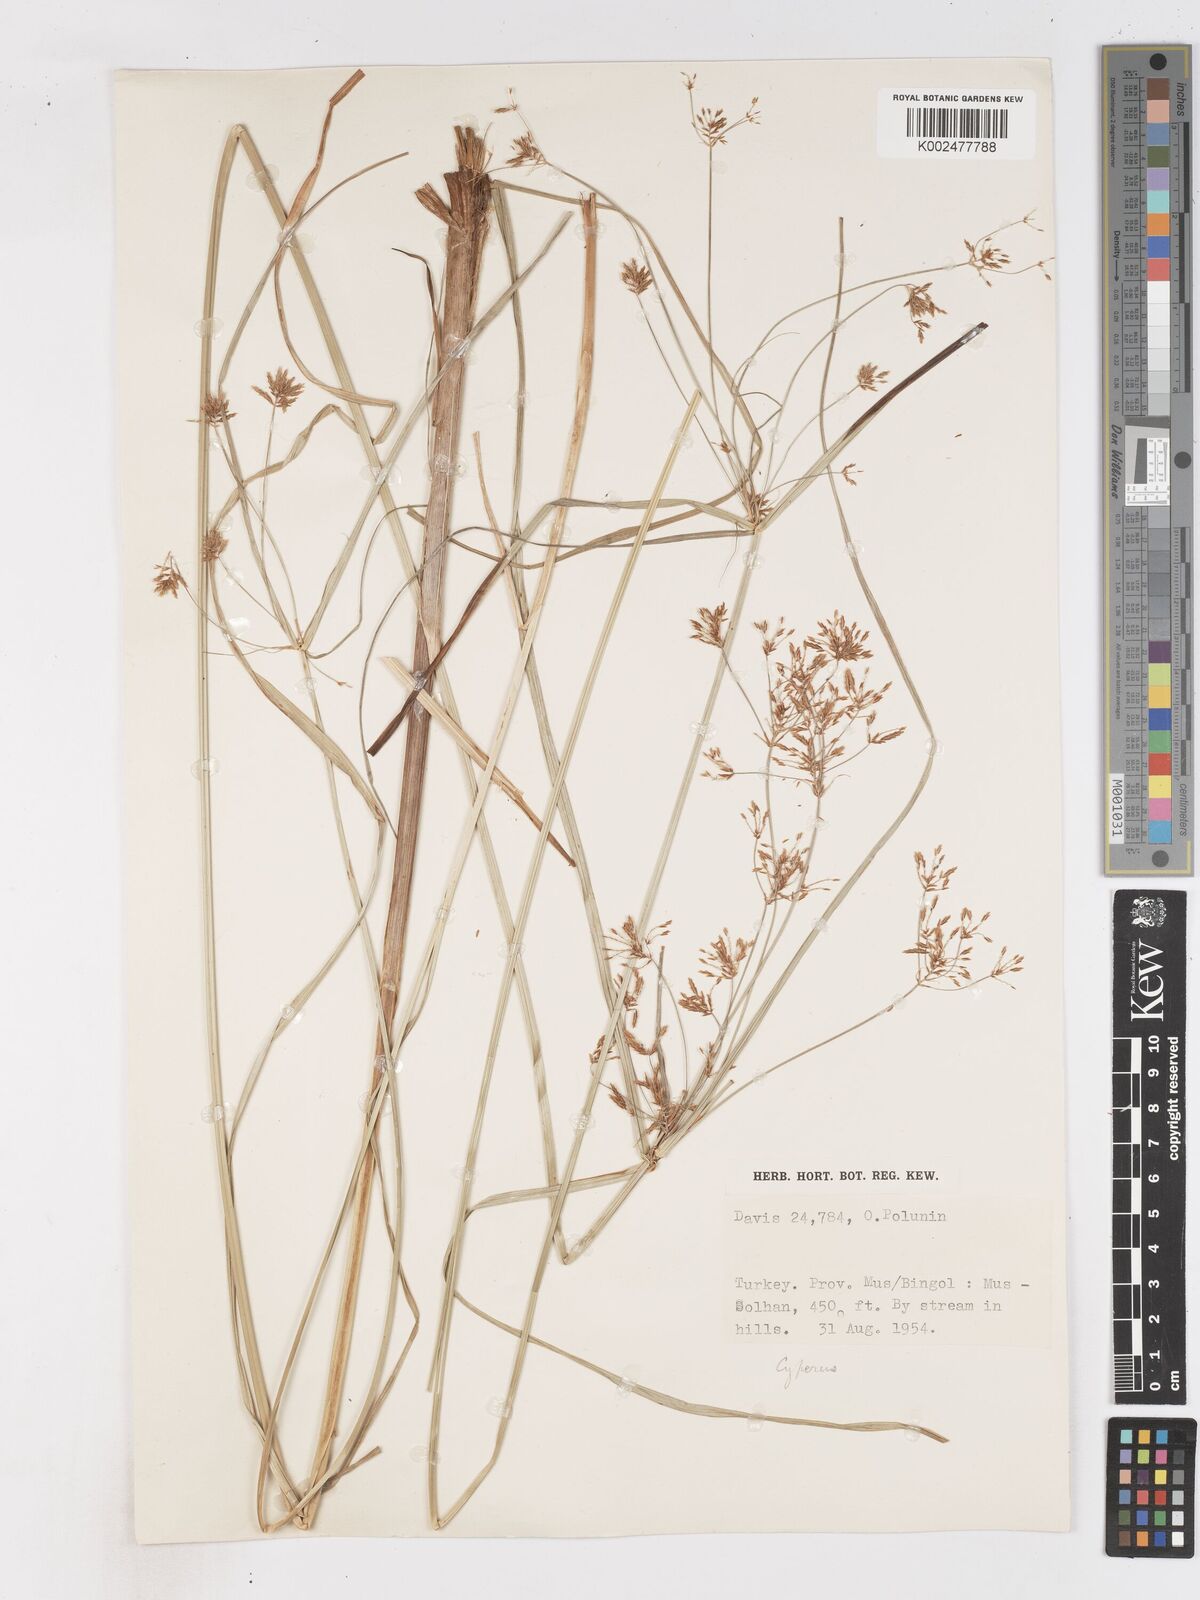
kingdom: Plantae
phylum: Tracheophyta
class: Liliopsida
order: Poales
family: Cyperaceae
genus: Cyperus
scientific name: Cyperus longus
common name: Galingale
